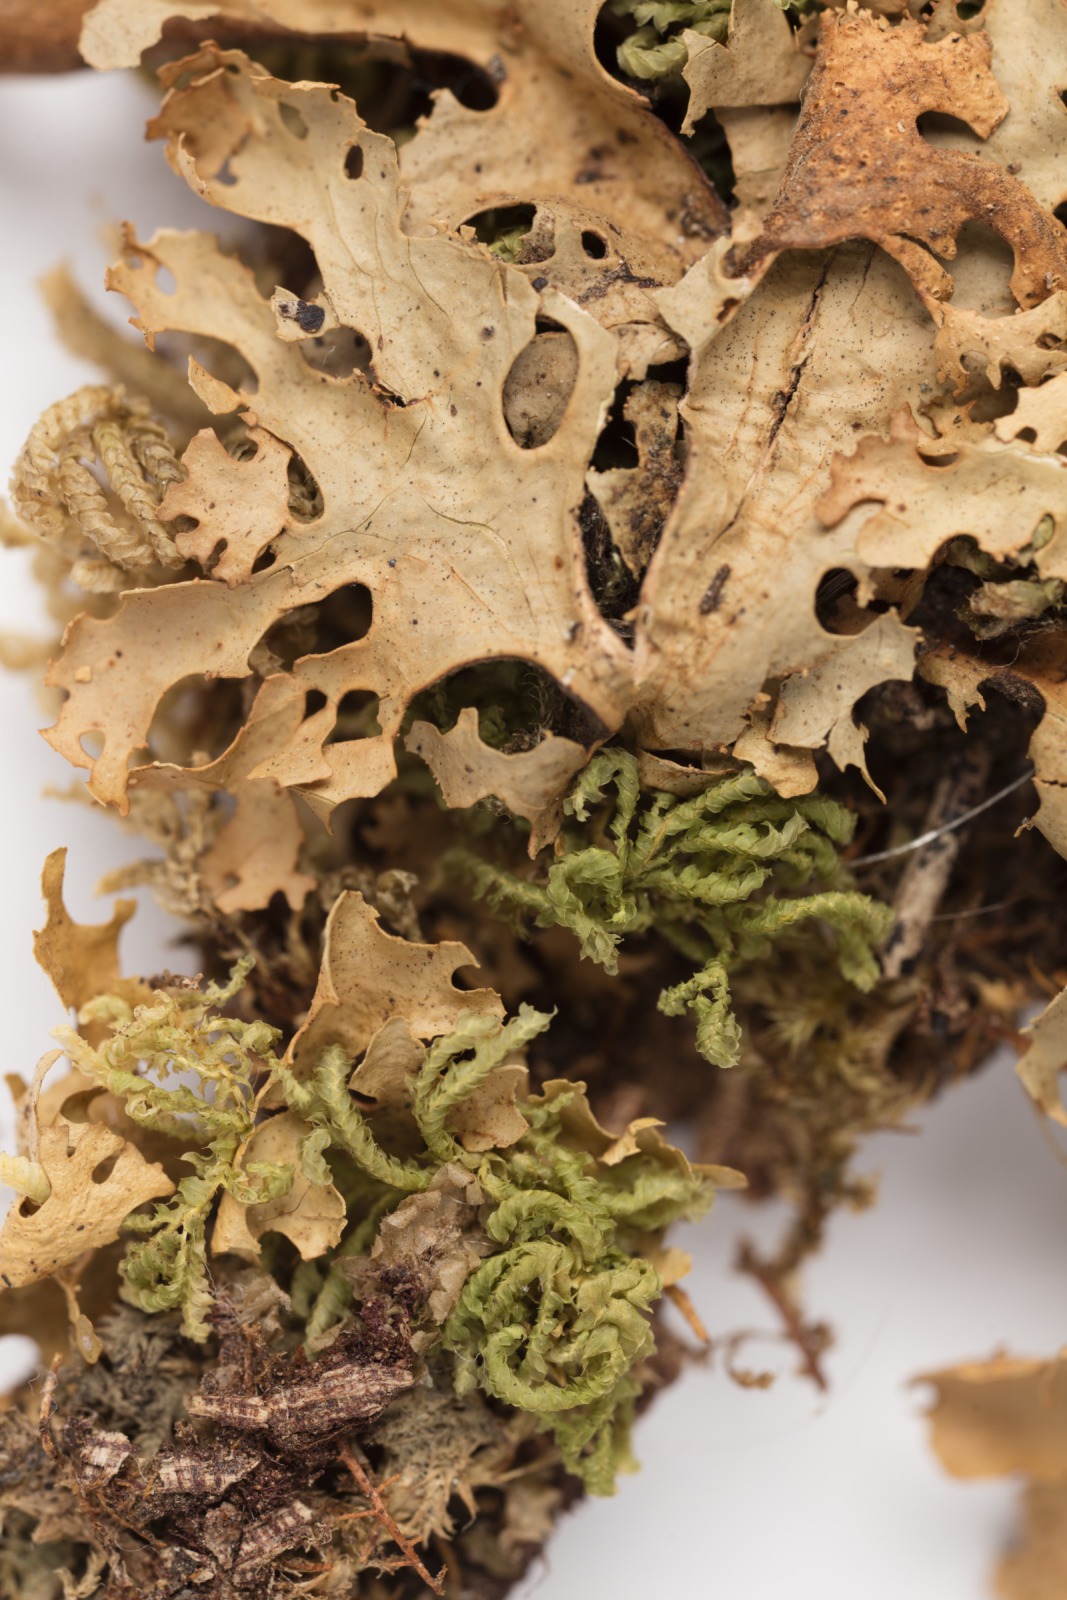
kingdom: Fungi
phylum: Ascomycota
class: Lecanoromycetes
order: Peltigerales
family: Lobariaceae
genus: Sticta
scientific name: Sticta filix
